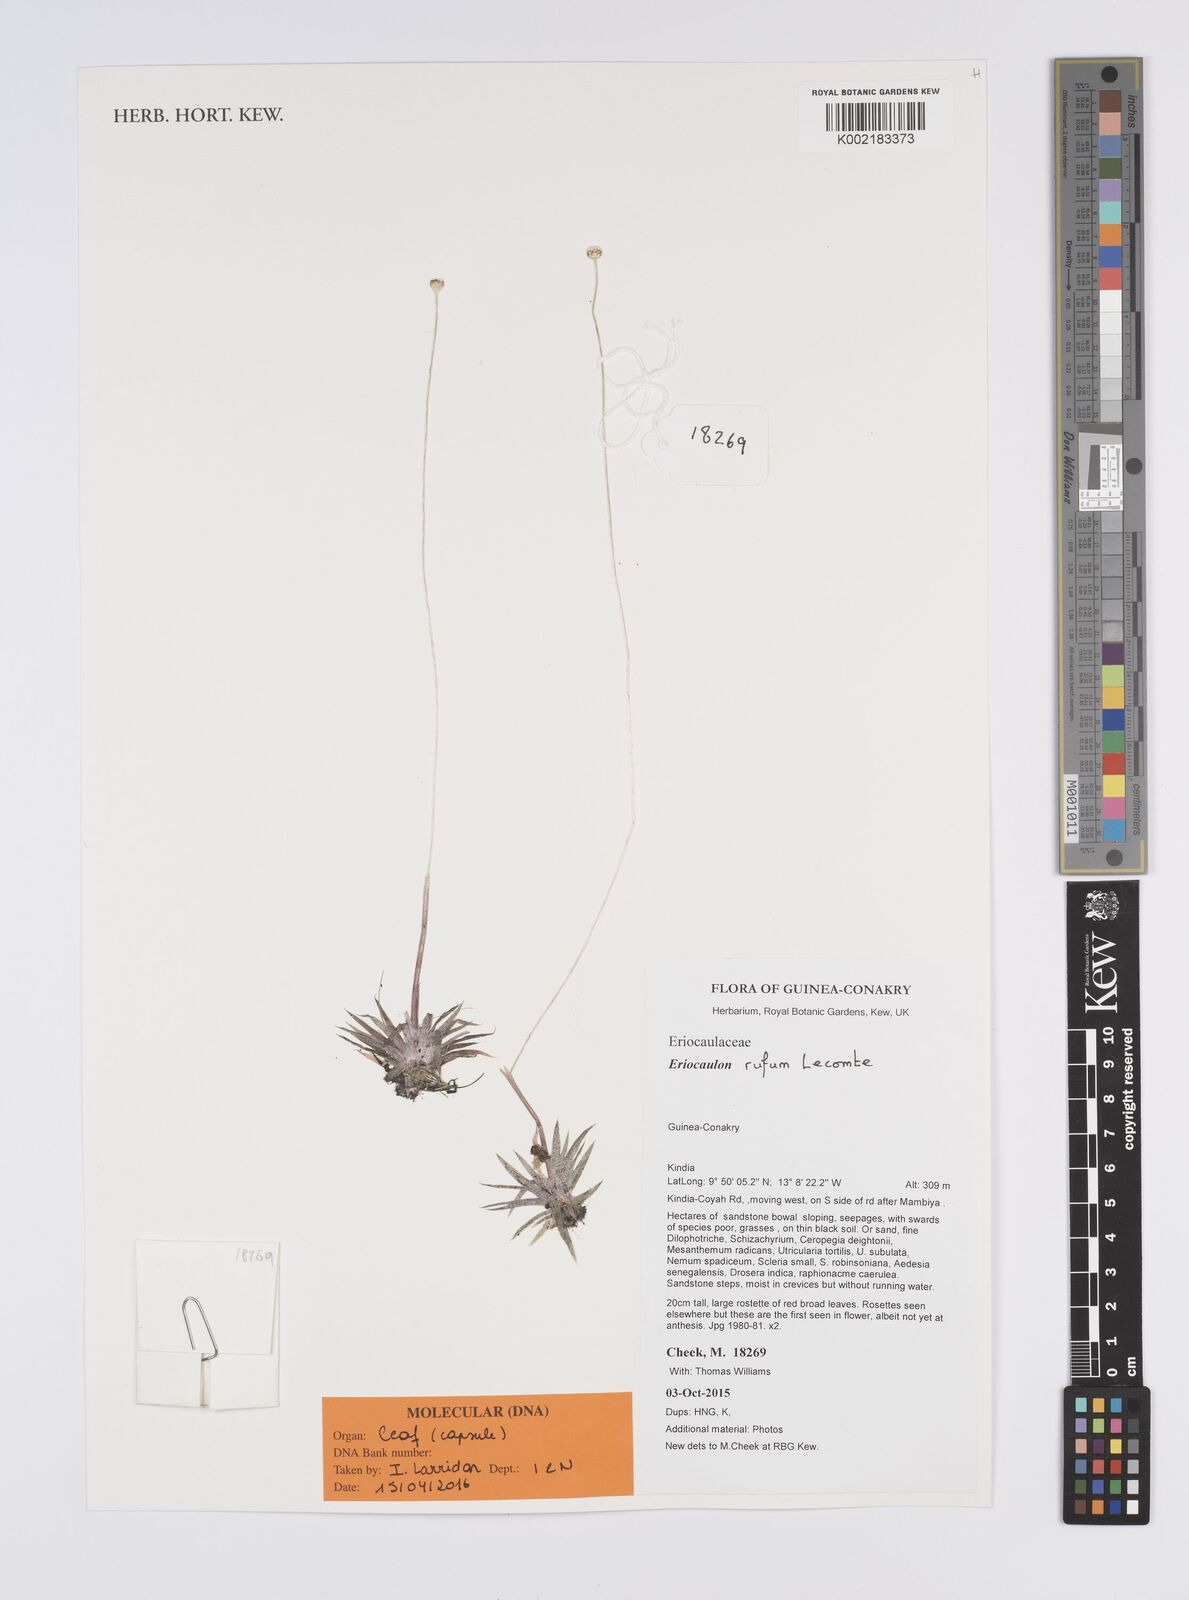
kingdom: Plantae
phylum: Tracheophyta
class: Liliopsida
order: Poales
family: Eriocaulaceae
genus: Eriocaulon
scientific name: Eriocaulon rufum
